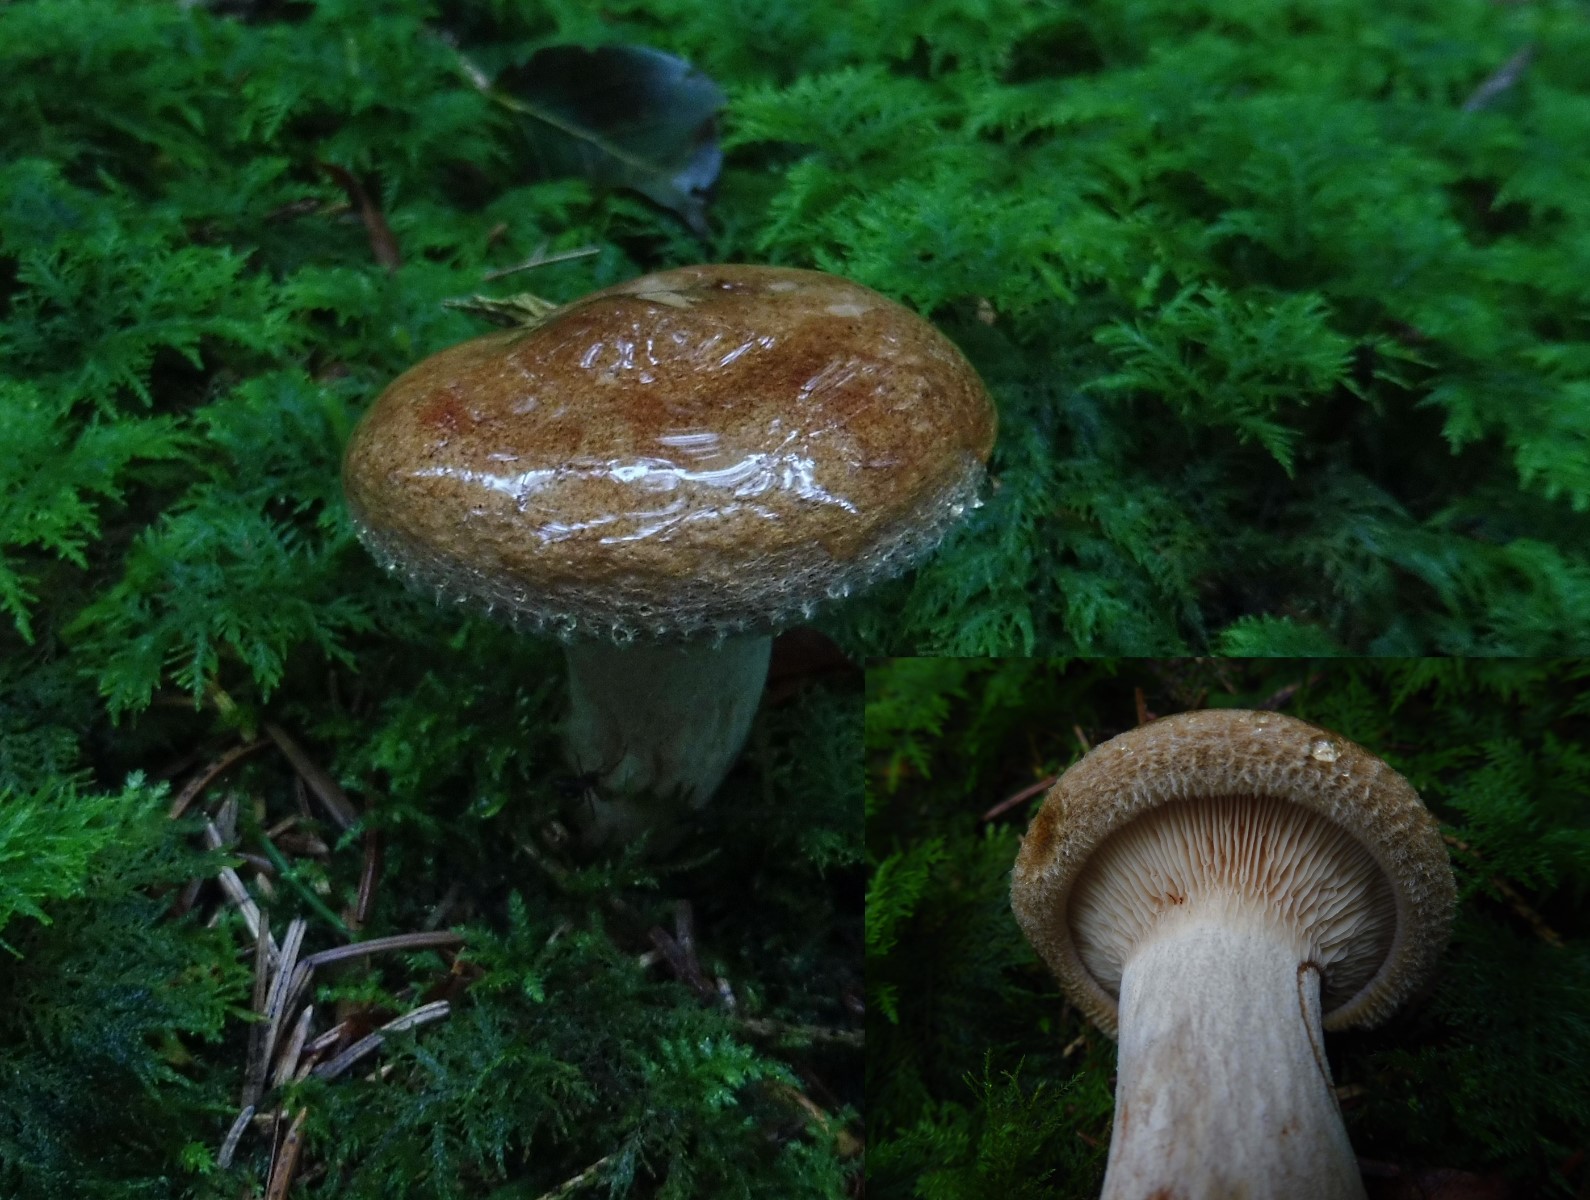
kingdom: Fungi
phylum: Basidiomycota
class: Agaricomycetes
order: Boletales
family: Paxillaceae
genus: Paxillus
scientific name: Paxillus involutus
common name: almindelig netbladhat
